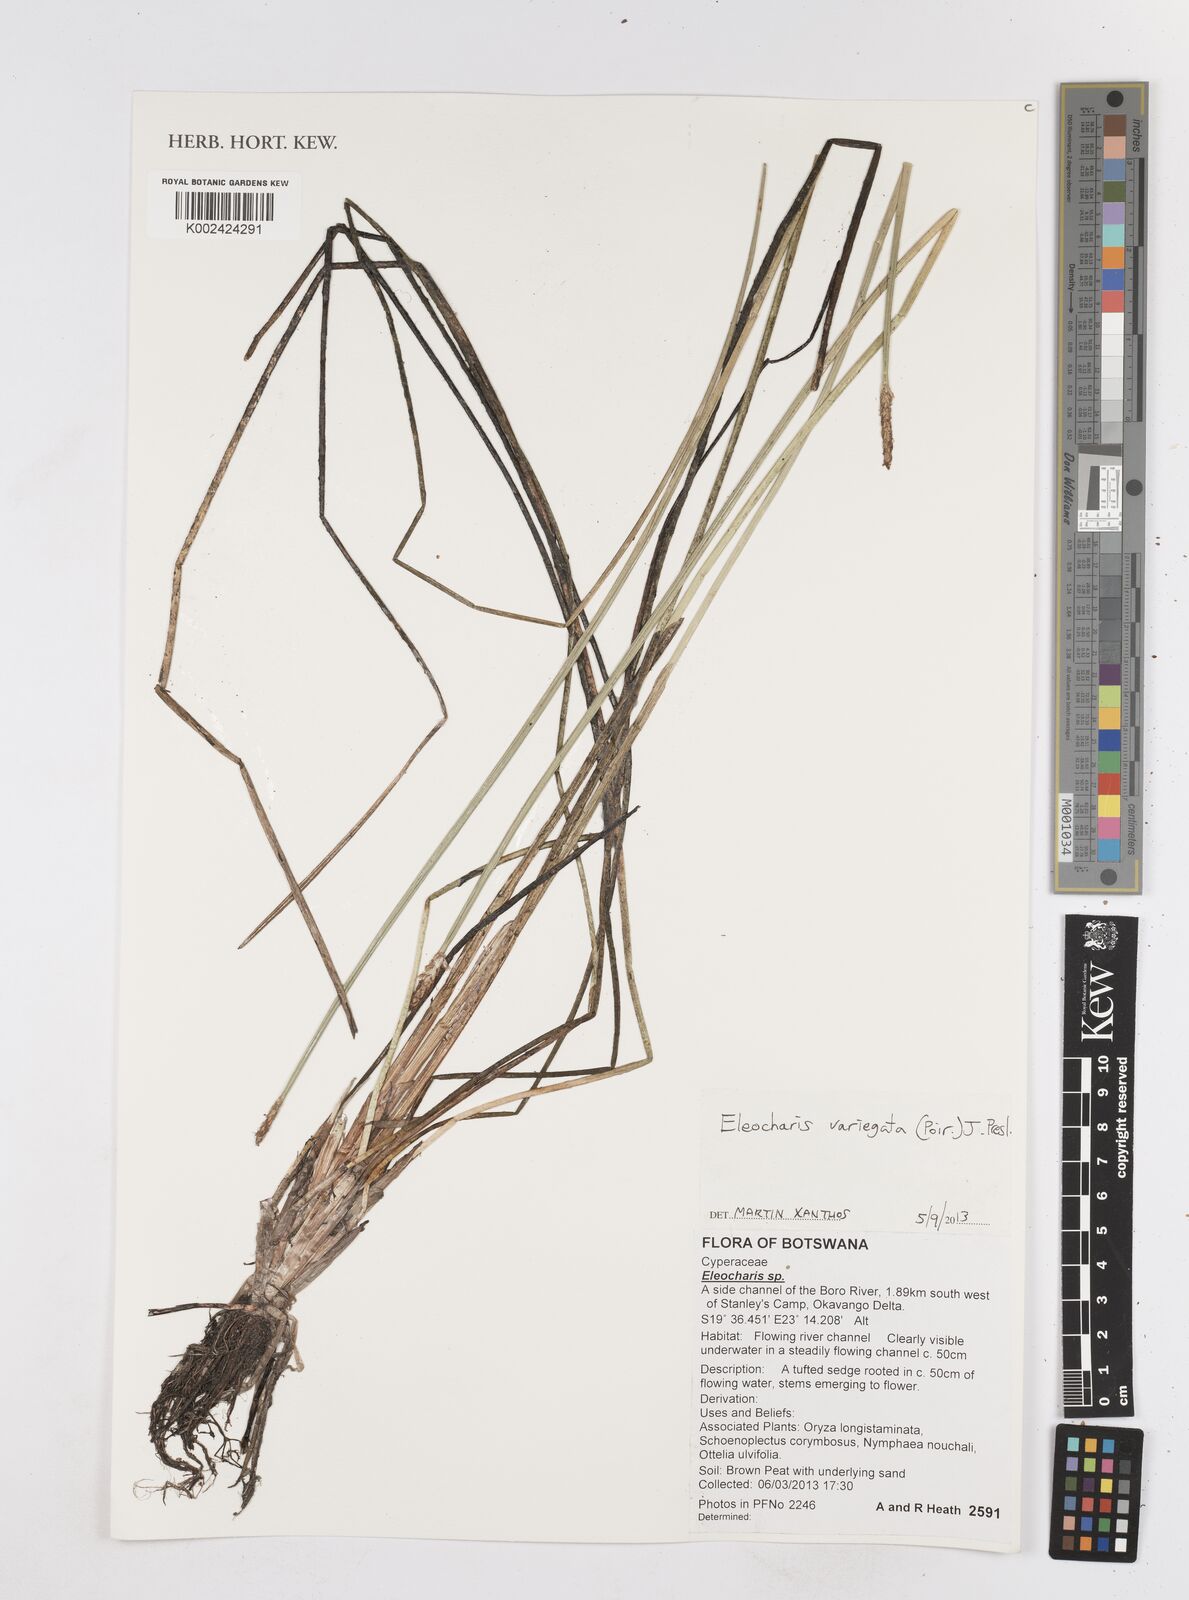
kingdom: Plantae
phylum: Tracheophyta
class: Liliopsida
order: Poales
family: Cyperaceae
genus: Eleocharis
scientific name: Eleocharis variegata
